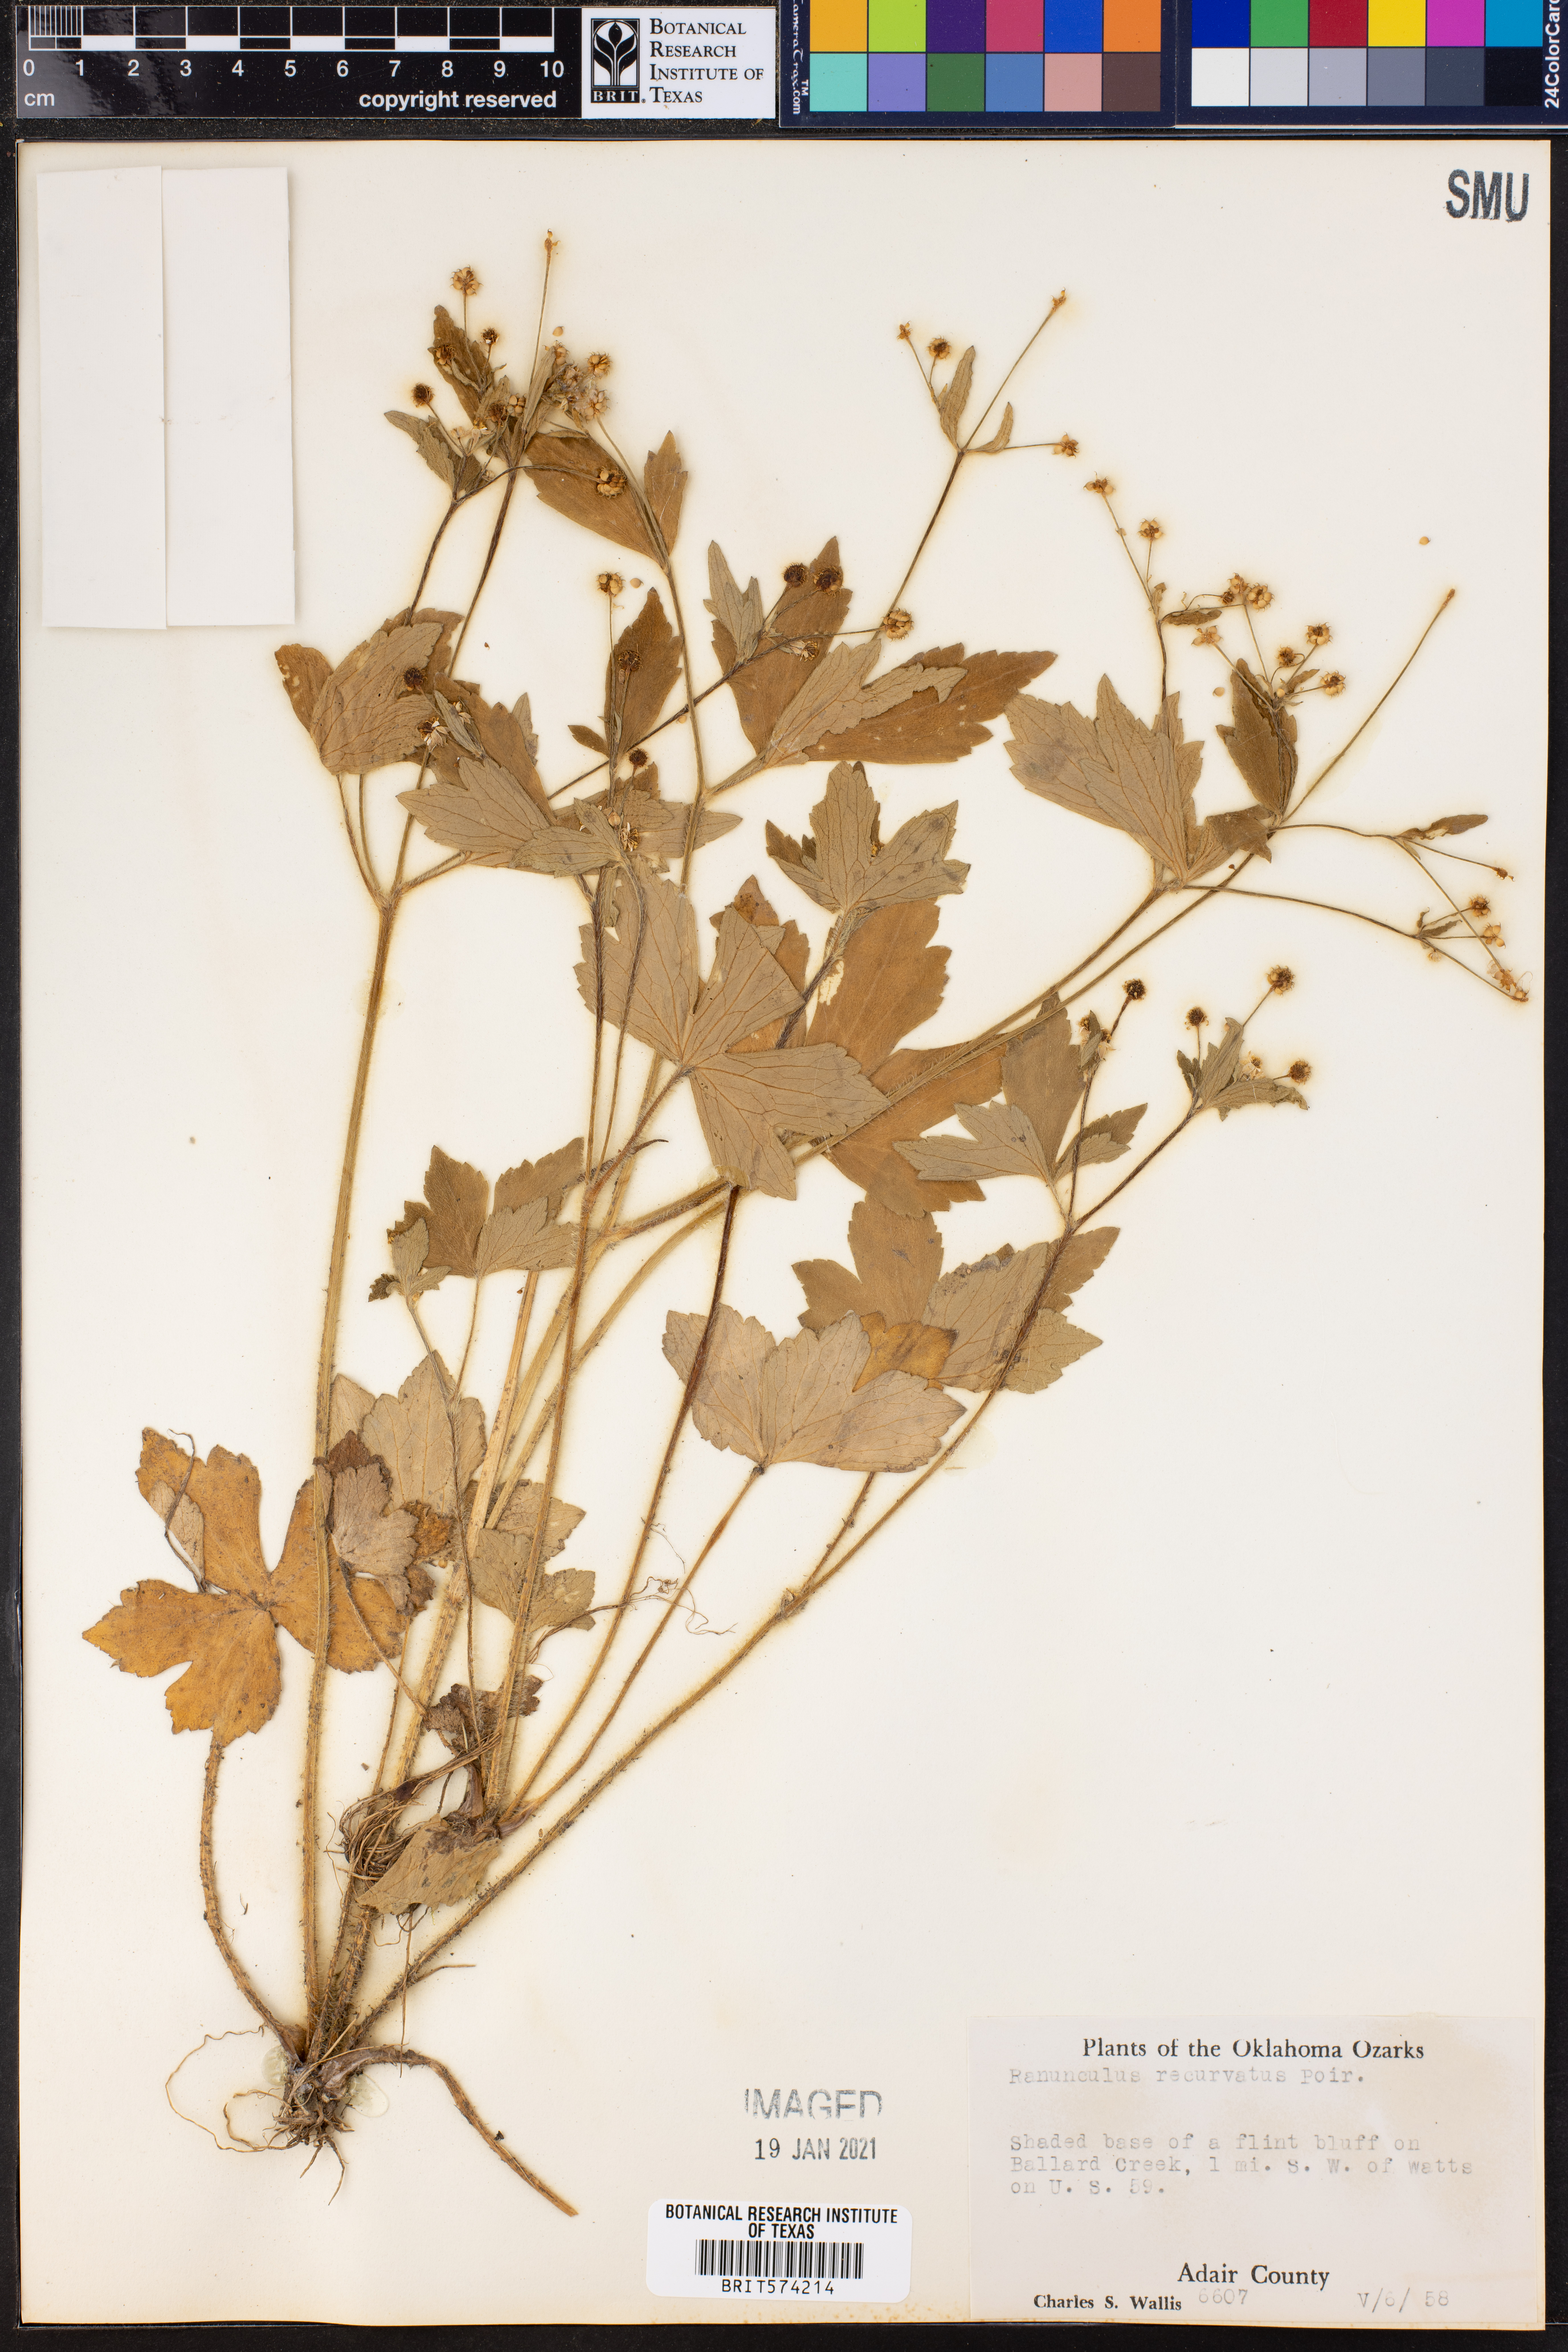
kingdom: Plantae
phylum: Tracheophyta
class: Magnoliopsida
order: Ranunculales
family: Ranunculaceae
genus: Ranunculus
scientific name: Ranunculus recurvatus
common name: Blisterwort
